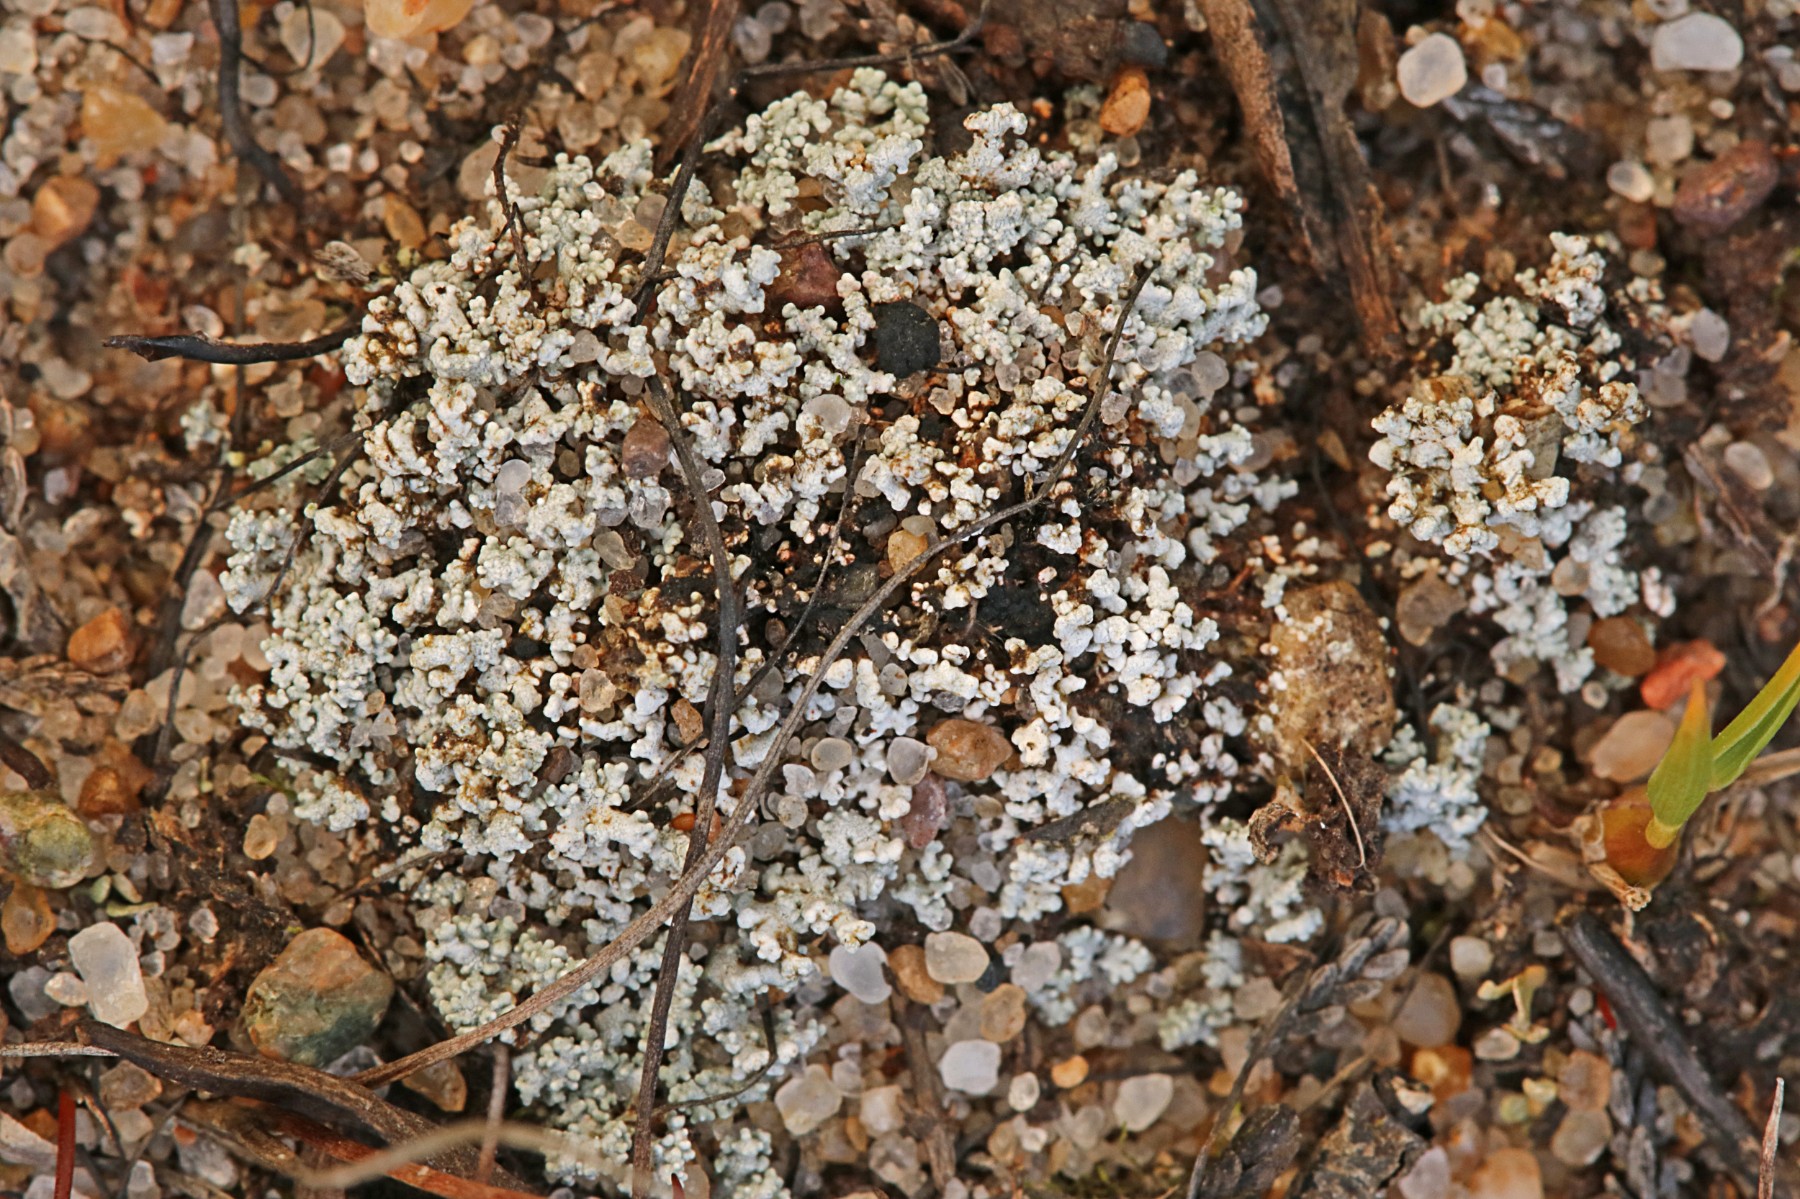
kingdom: Fungi
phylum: Ascomycota
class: Lecanoromycetes
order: Lecanorales
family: Stereocaulaceae
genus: Stereocaulon
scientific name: Stereocaulon condensatum
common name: lav korallav
